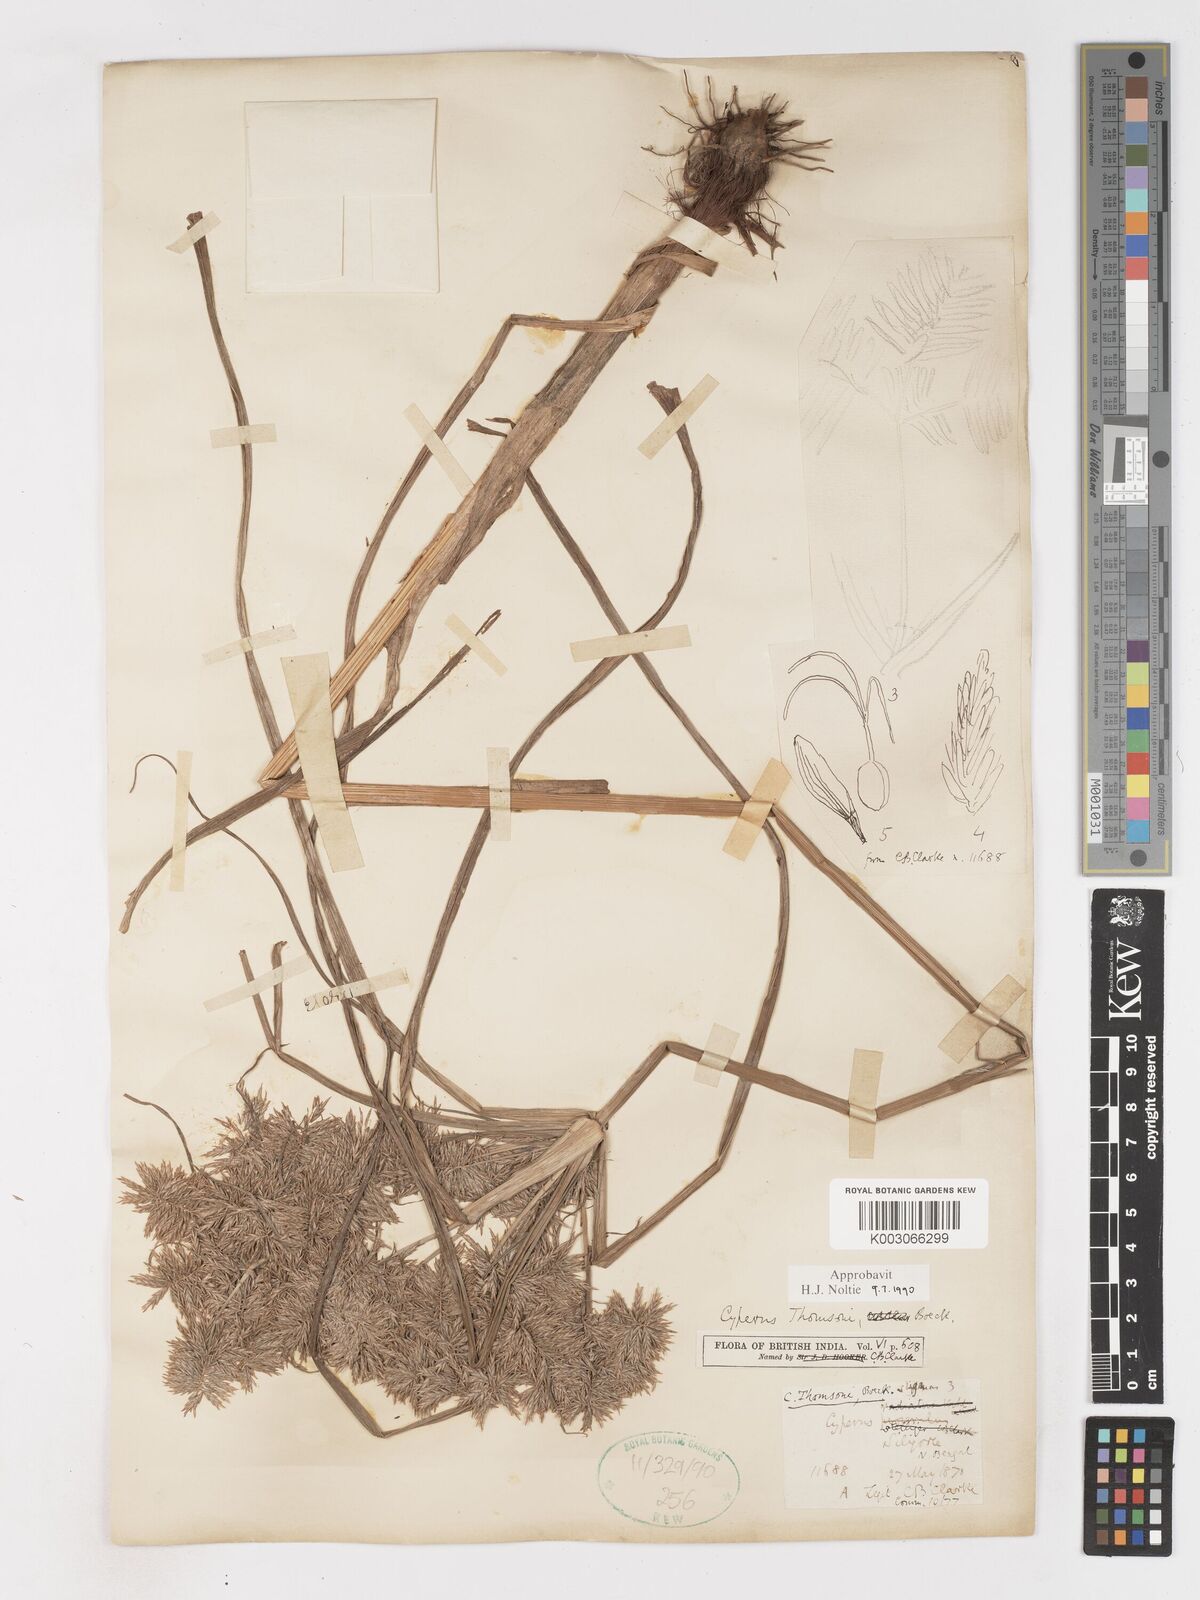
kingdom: Plantae
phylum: Tracheophyta
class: Liliopsida
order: Poales
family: Cyperaceae
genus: Cyperus
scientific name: Cyperus thomsonii
